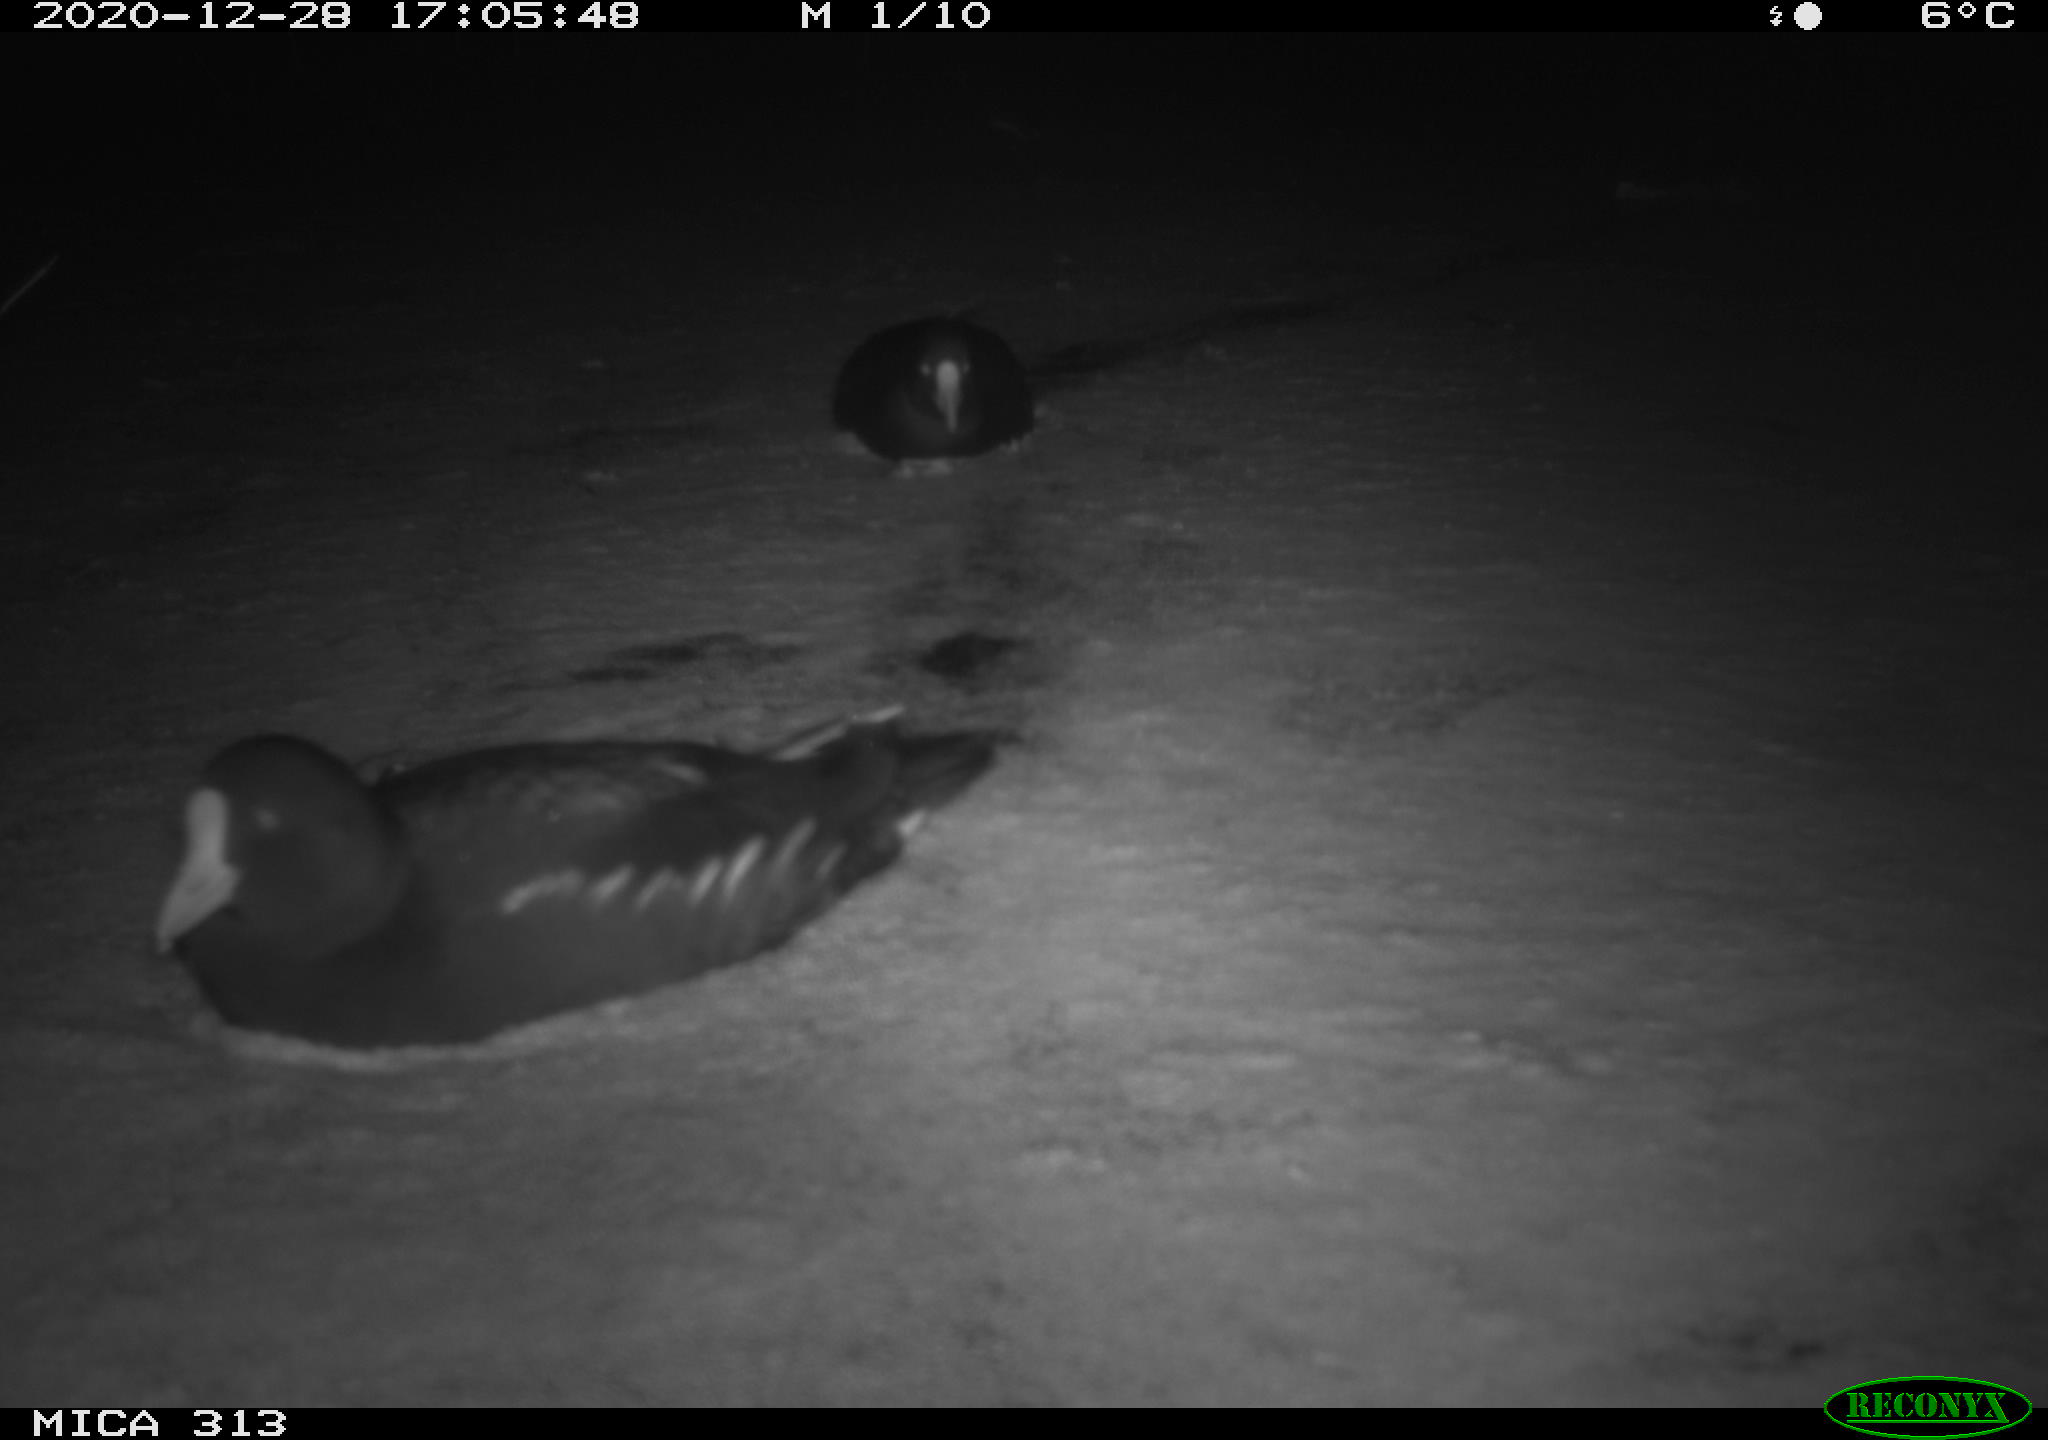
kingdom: Animalia
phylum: Chordata
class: Aves
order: Gruiformes
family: Rallidae
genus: Fulica
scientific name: Fulica atra
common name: Eurasian coot
